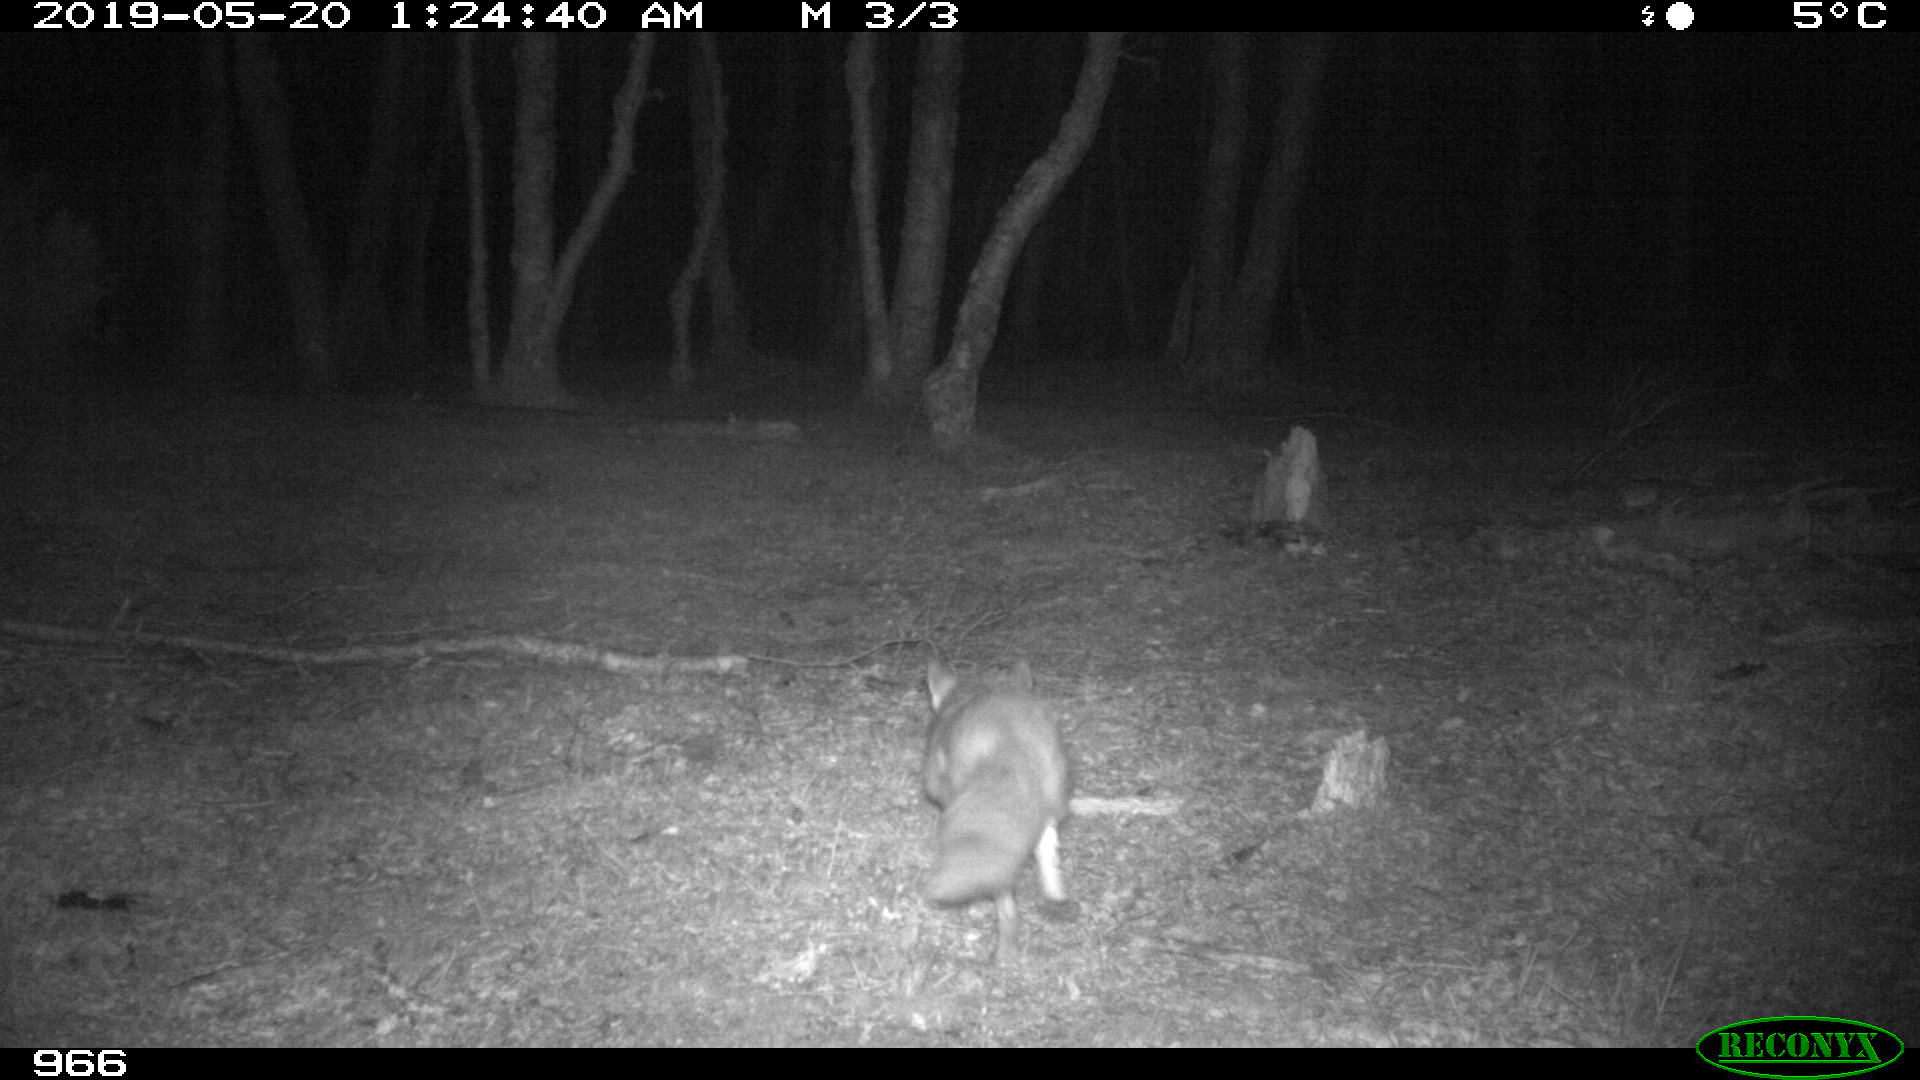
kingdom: Animalia
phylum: Chordata
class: Mammalia
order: Carnivora
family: Canidae
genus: Vulpes
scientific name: Vulpes vulpes
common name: Red fox
